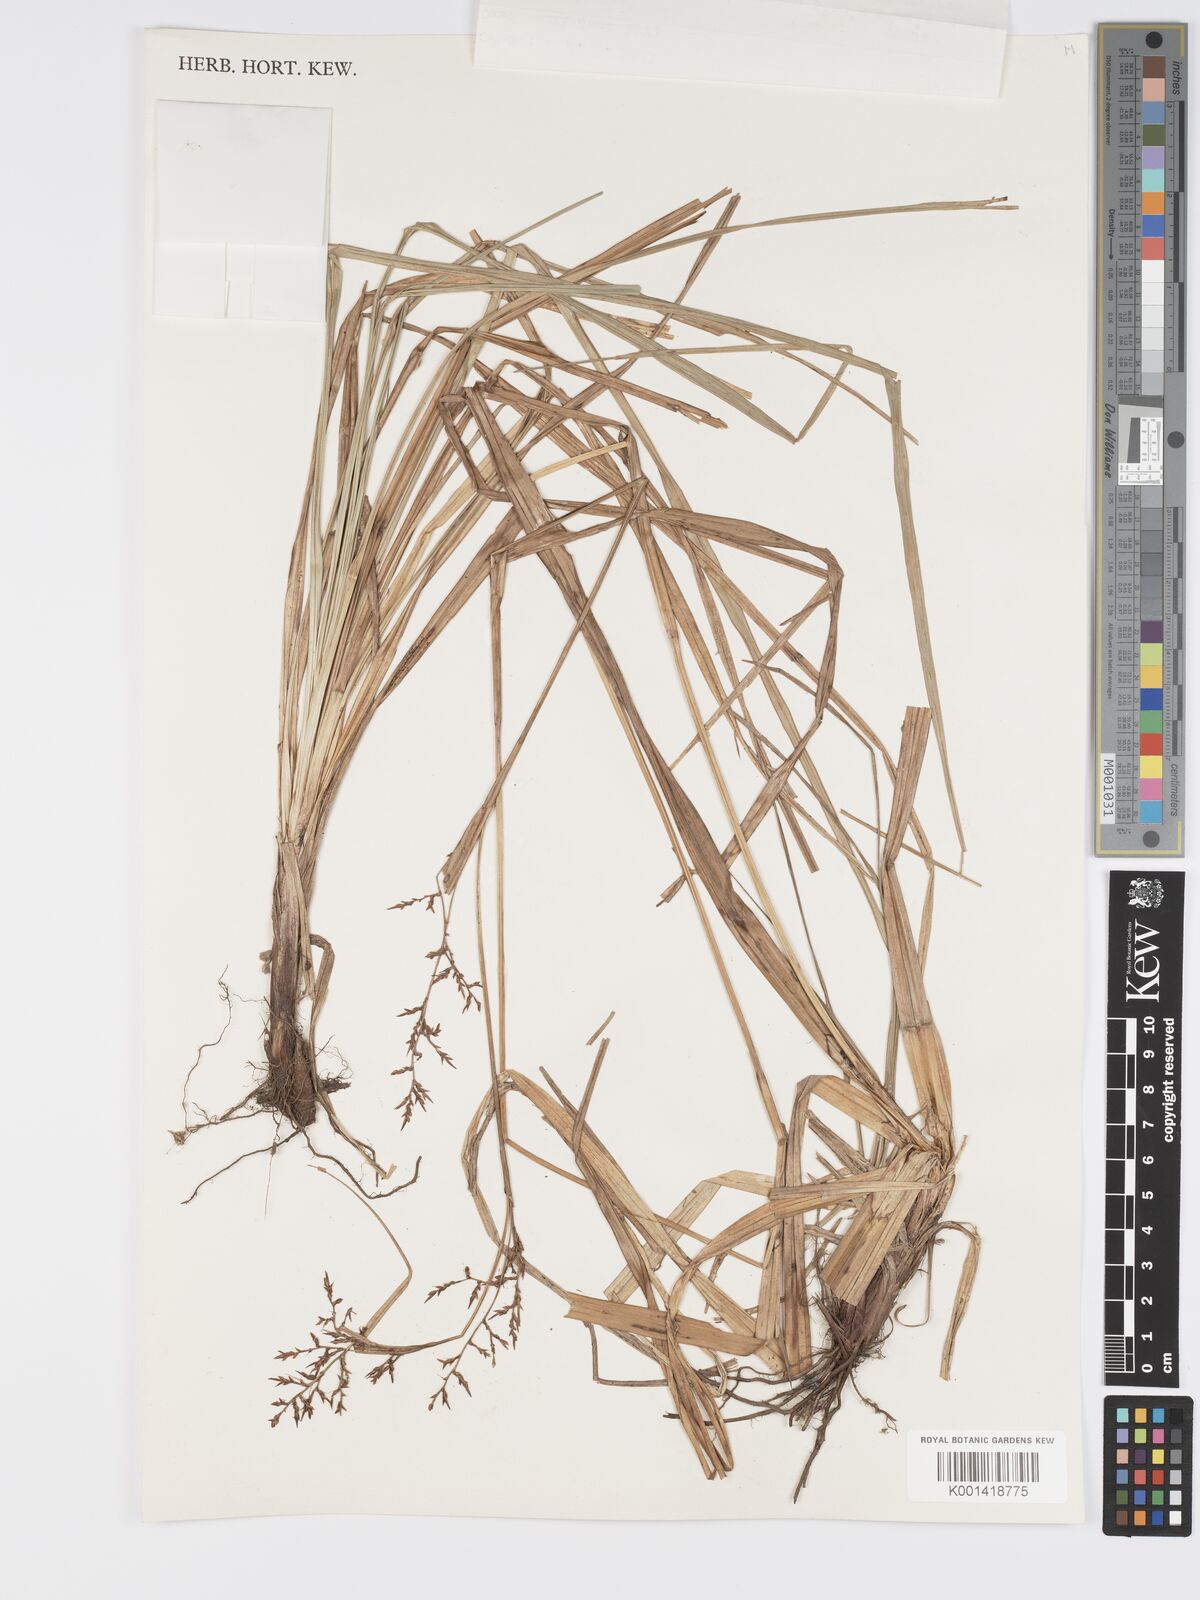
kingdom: Plantae
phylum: Tracheophyta
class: Liliopsida
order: Poales
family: Cyperaceae
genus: Carex
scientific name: Carex neochevalieri
